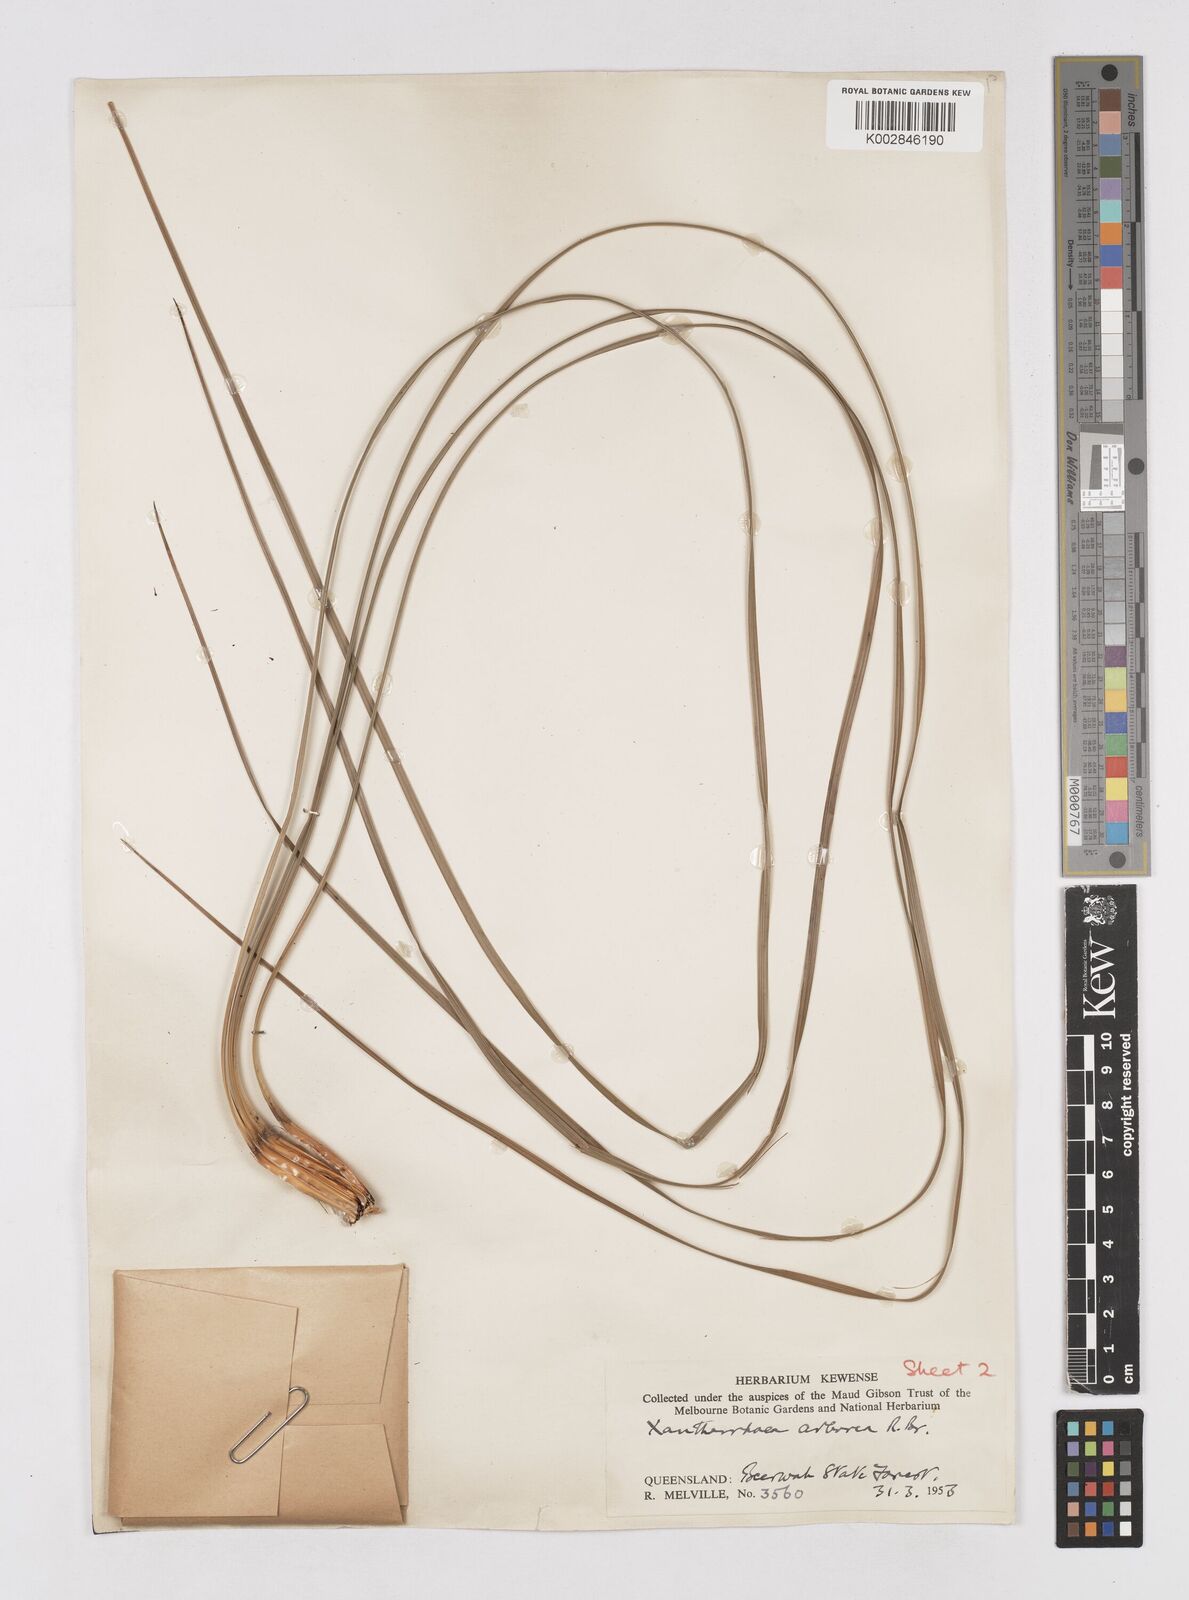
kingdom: Plantae
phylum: Tracheophyta
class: Liliopsida
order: Asparagales
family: Asphodelaceae
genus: Xanthorrhoea
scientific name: Xanthorrhoea arborea
